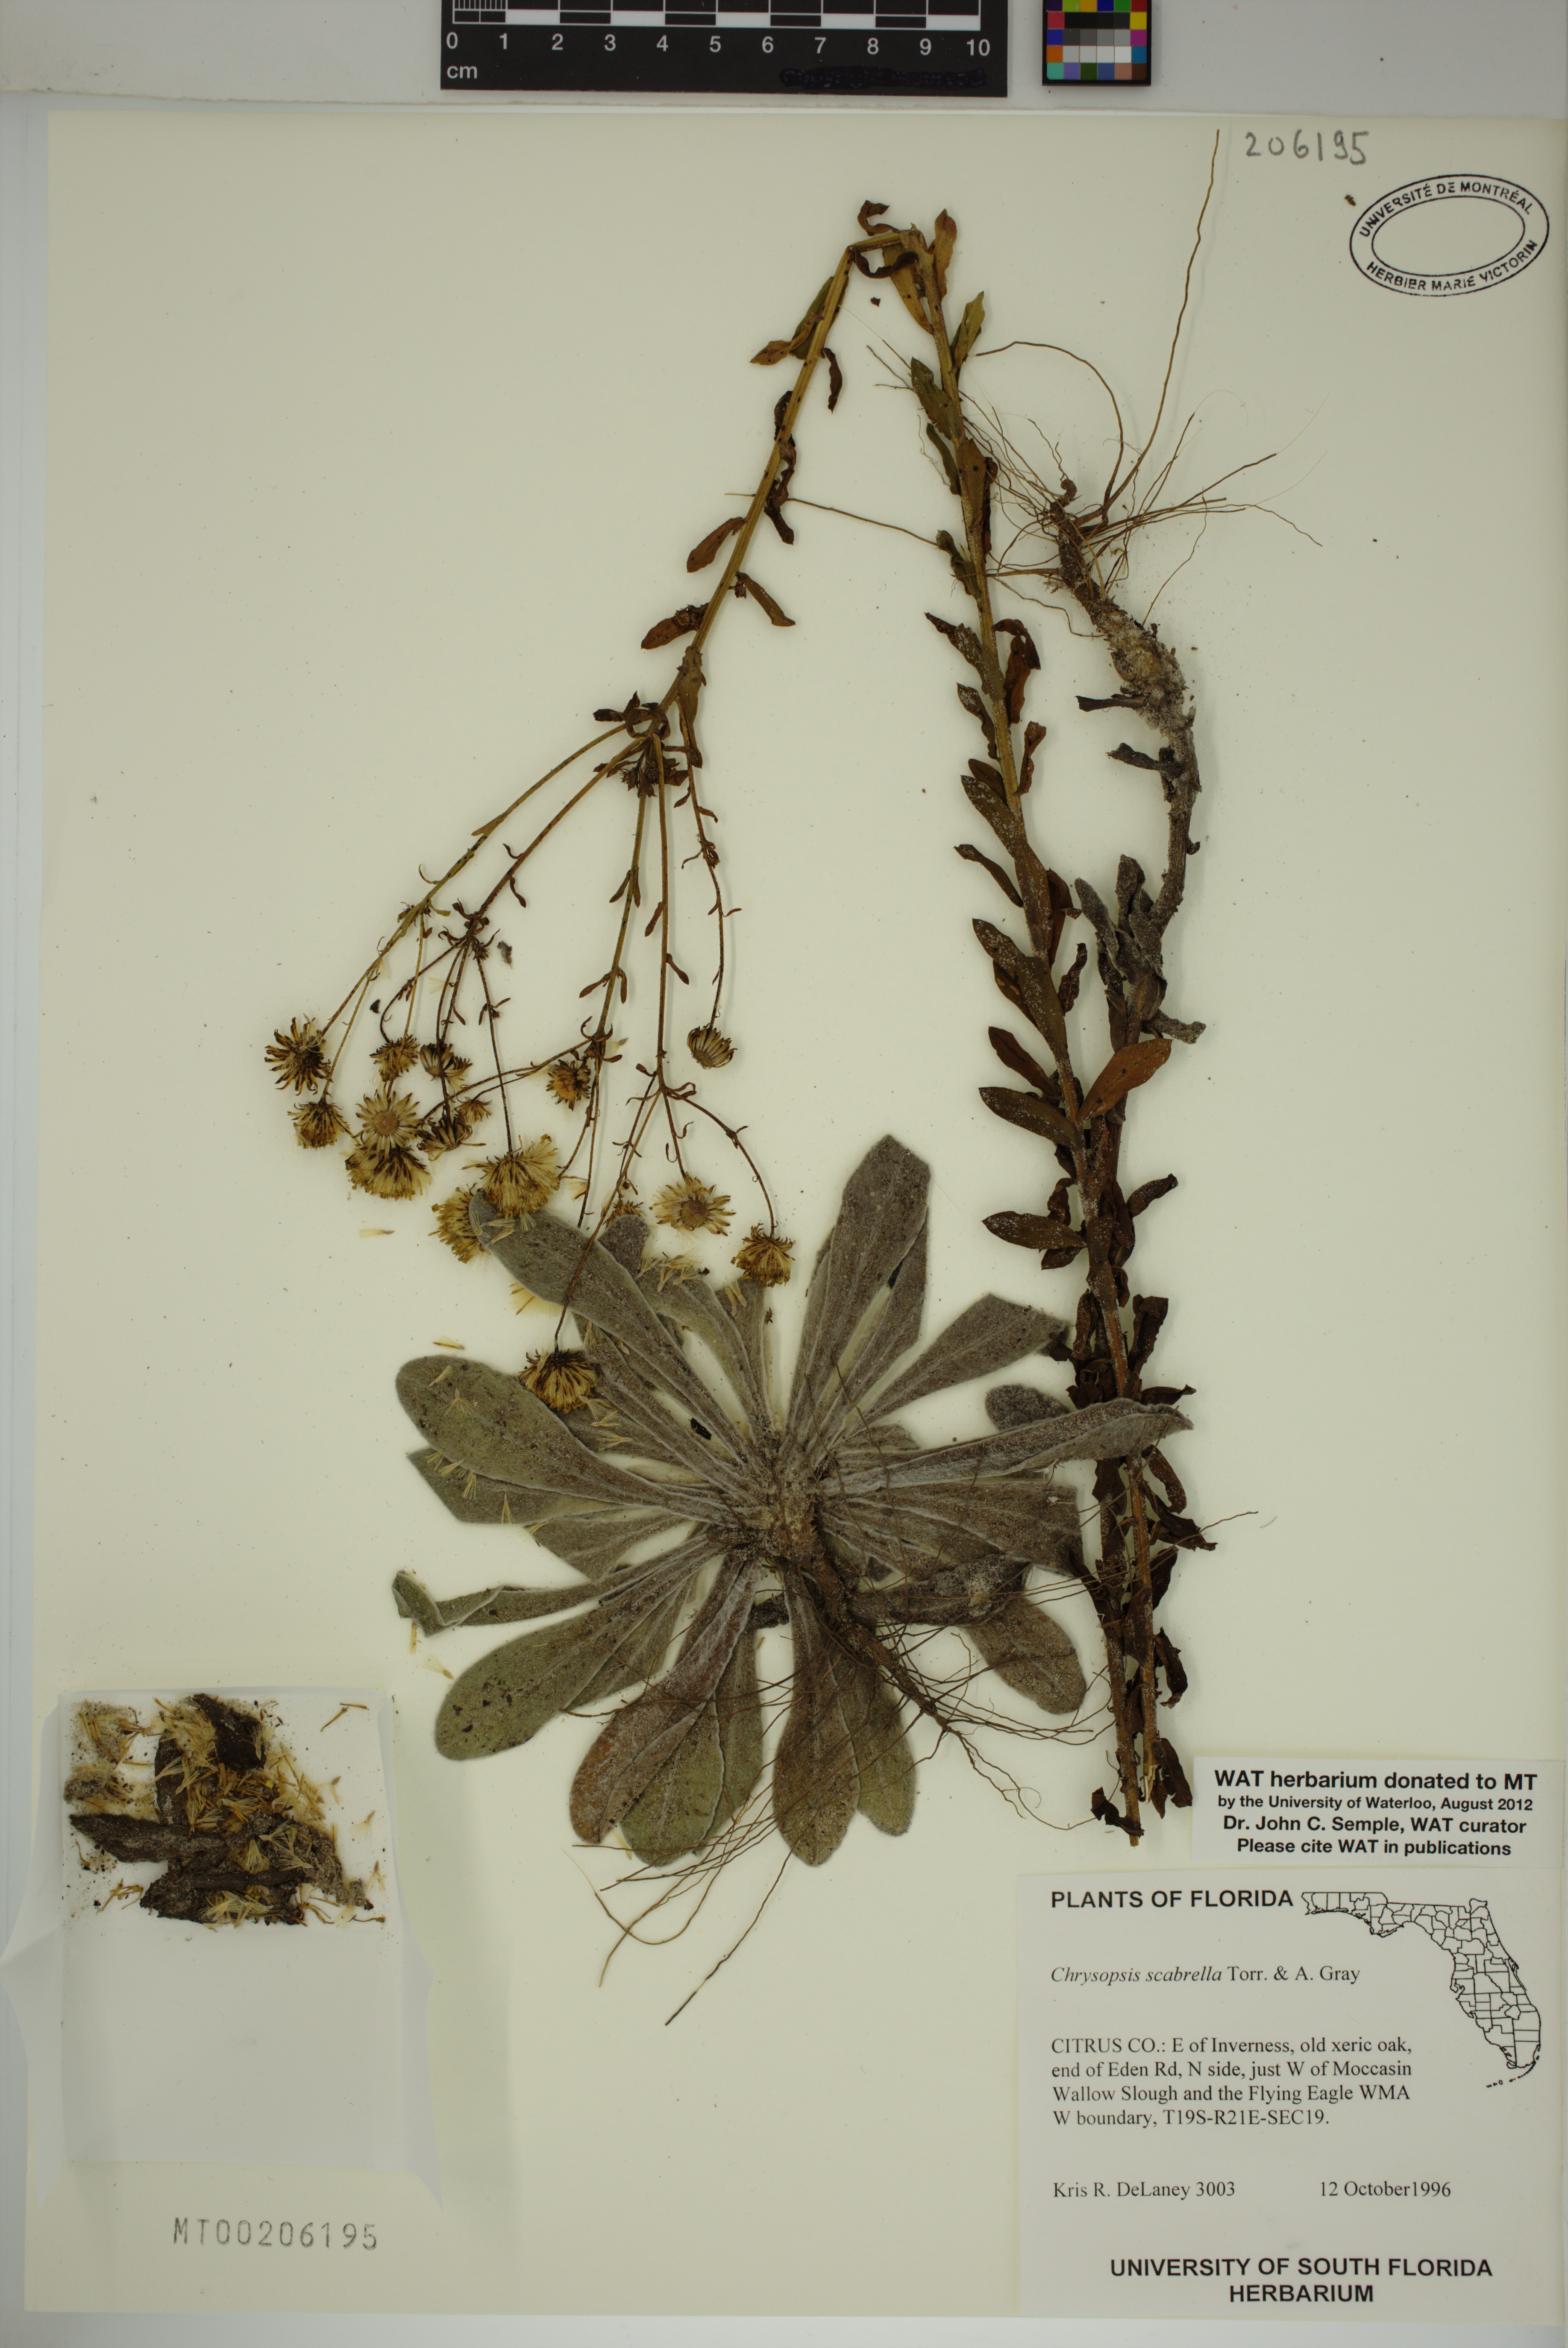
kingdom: Plantae
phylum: Tracheophyta
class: Magnoliopsida
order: Asterales
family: Asteraceae
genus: Chrysopsis
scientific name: Chrysopsis scabrella
